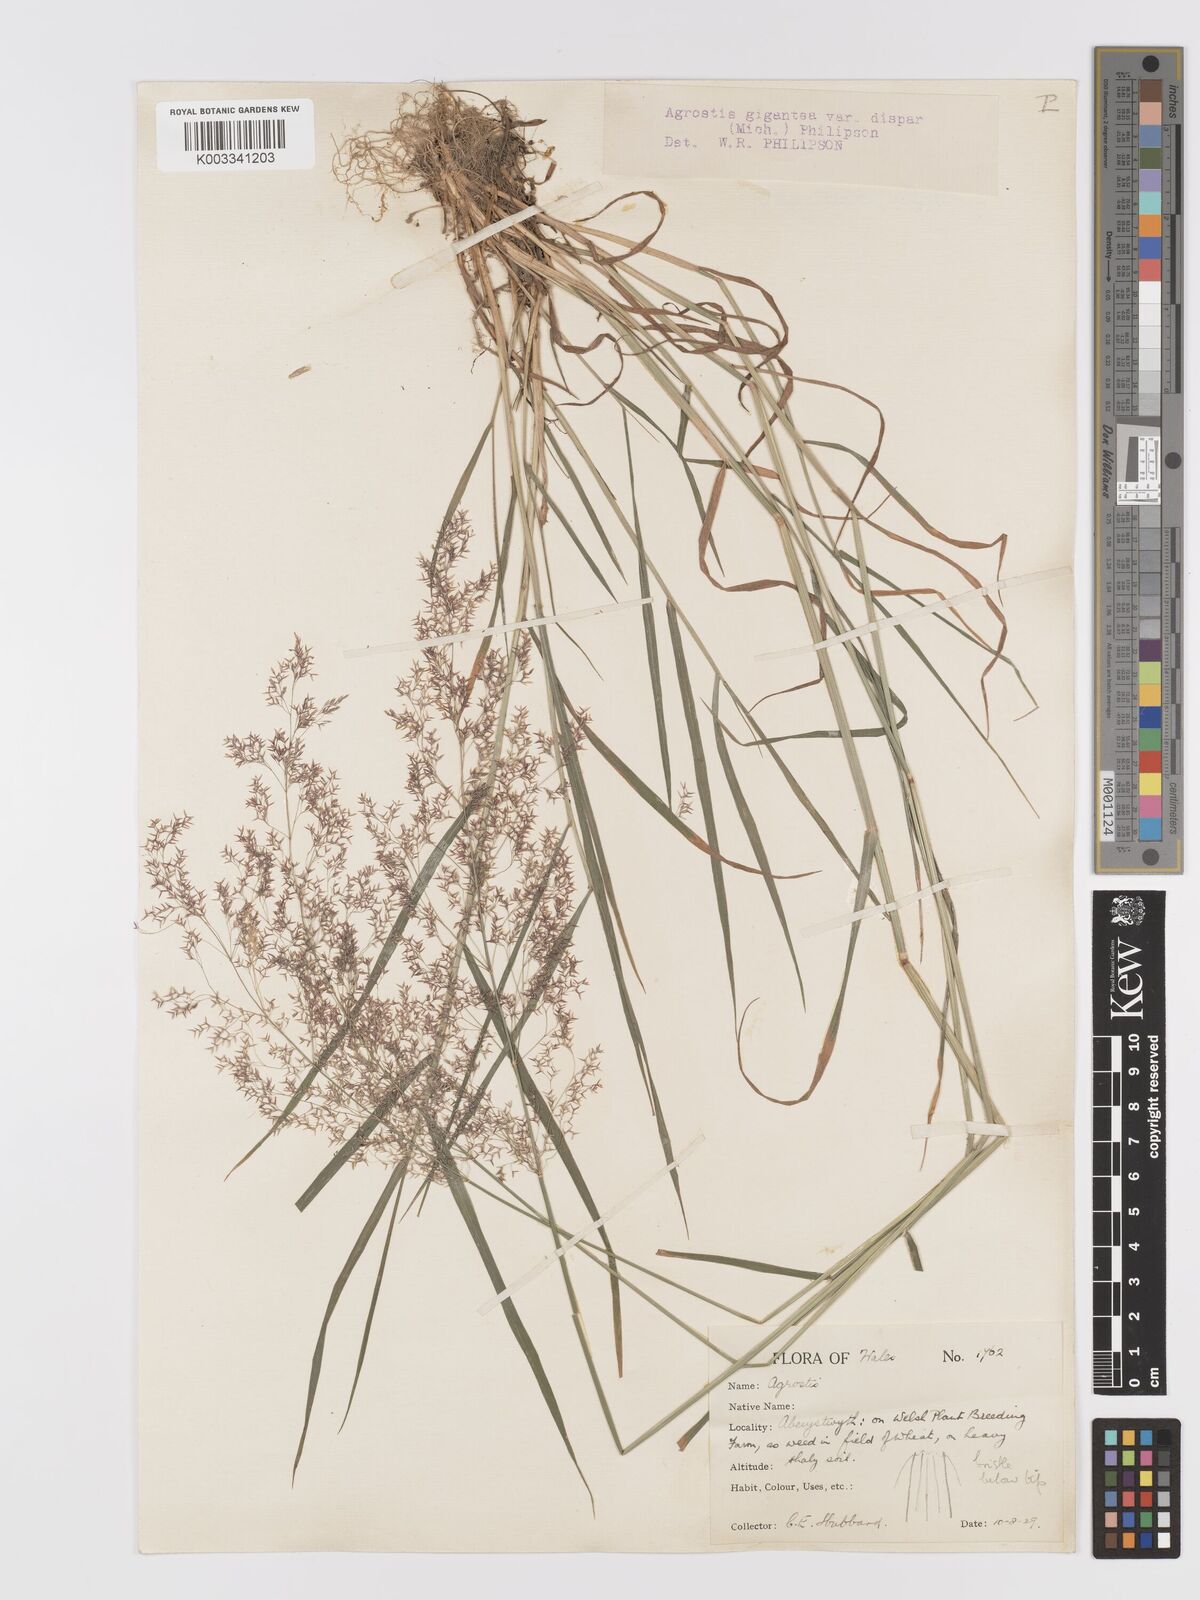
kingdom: Plantae
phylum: Tracheophyta
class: Liliopsida
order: Poales
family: Poaceae
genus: Agrostis
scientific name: Agrostis gigantea
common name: Black bent
